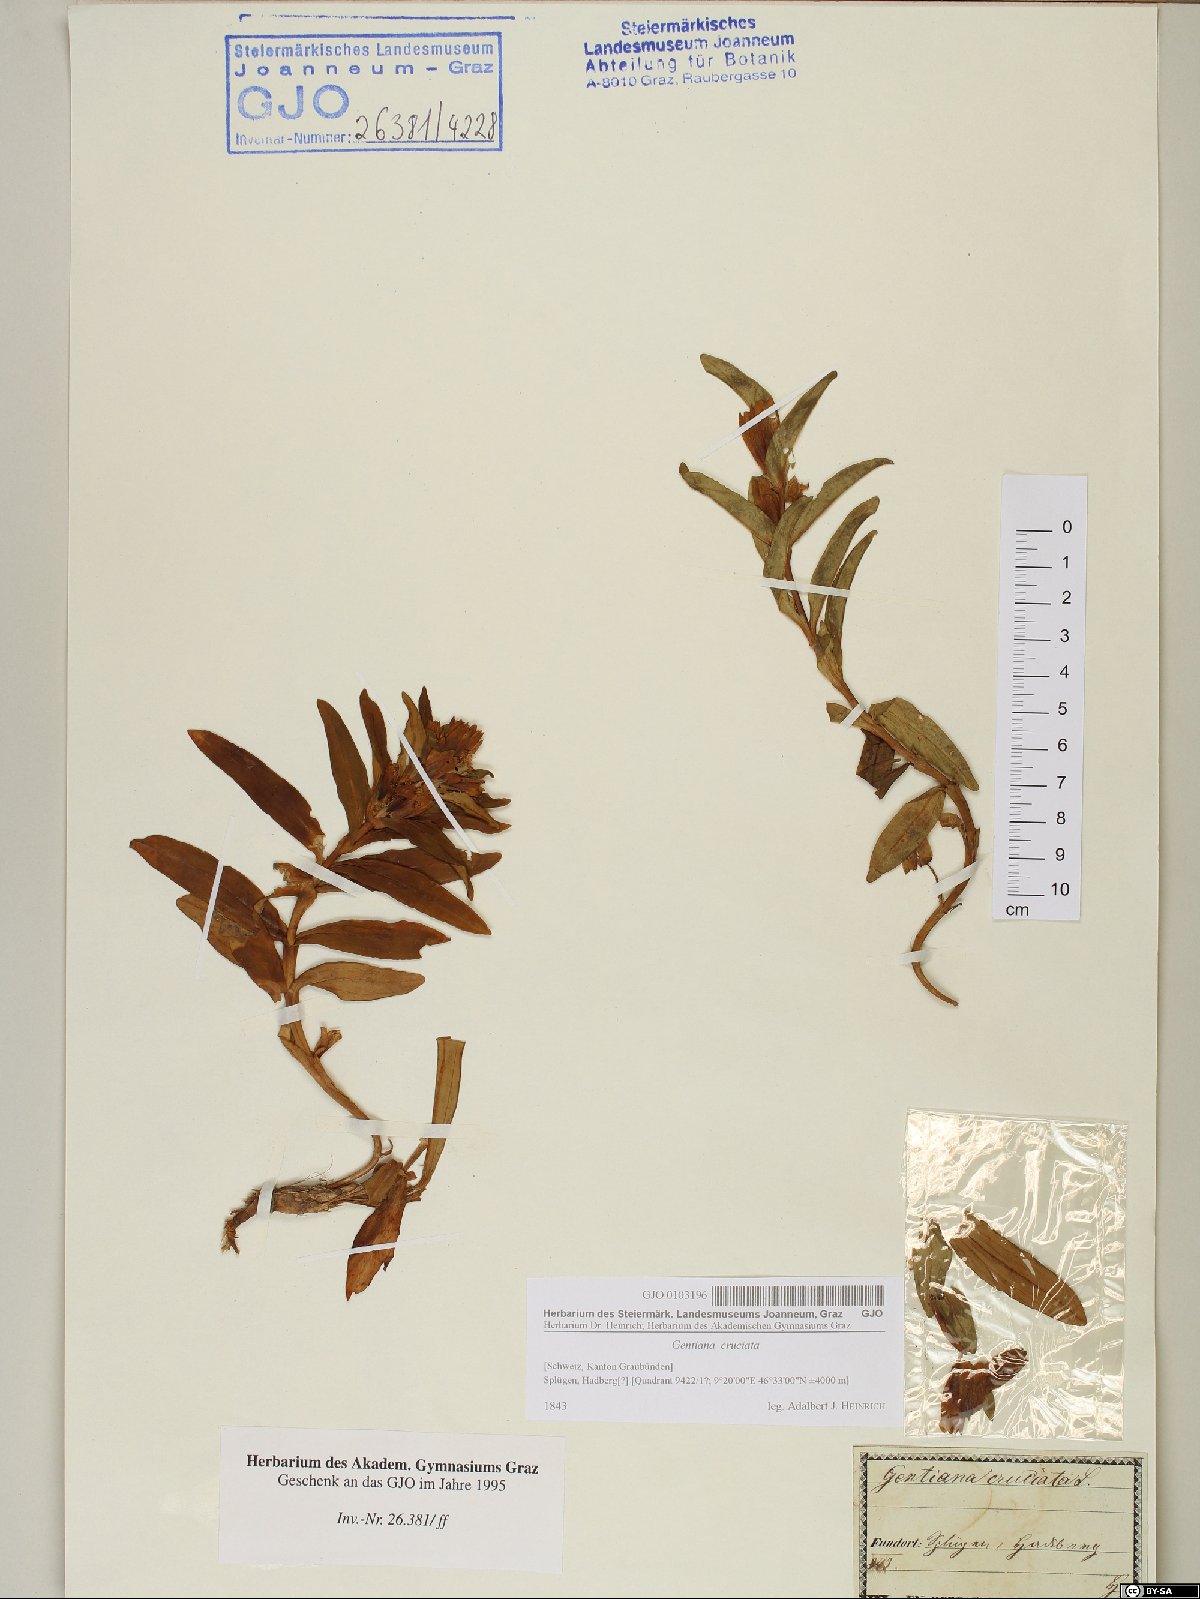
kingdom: Plantae
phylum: Tracheophyta
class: Magnoliopsida
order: Gentianales
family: Gentianaceae
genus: Gentiana
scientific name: Gentiana cruciata
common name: Cross gentian
